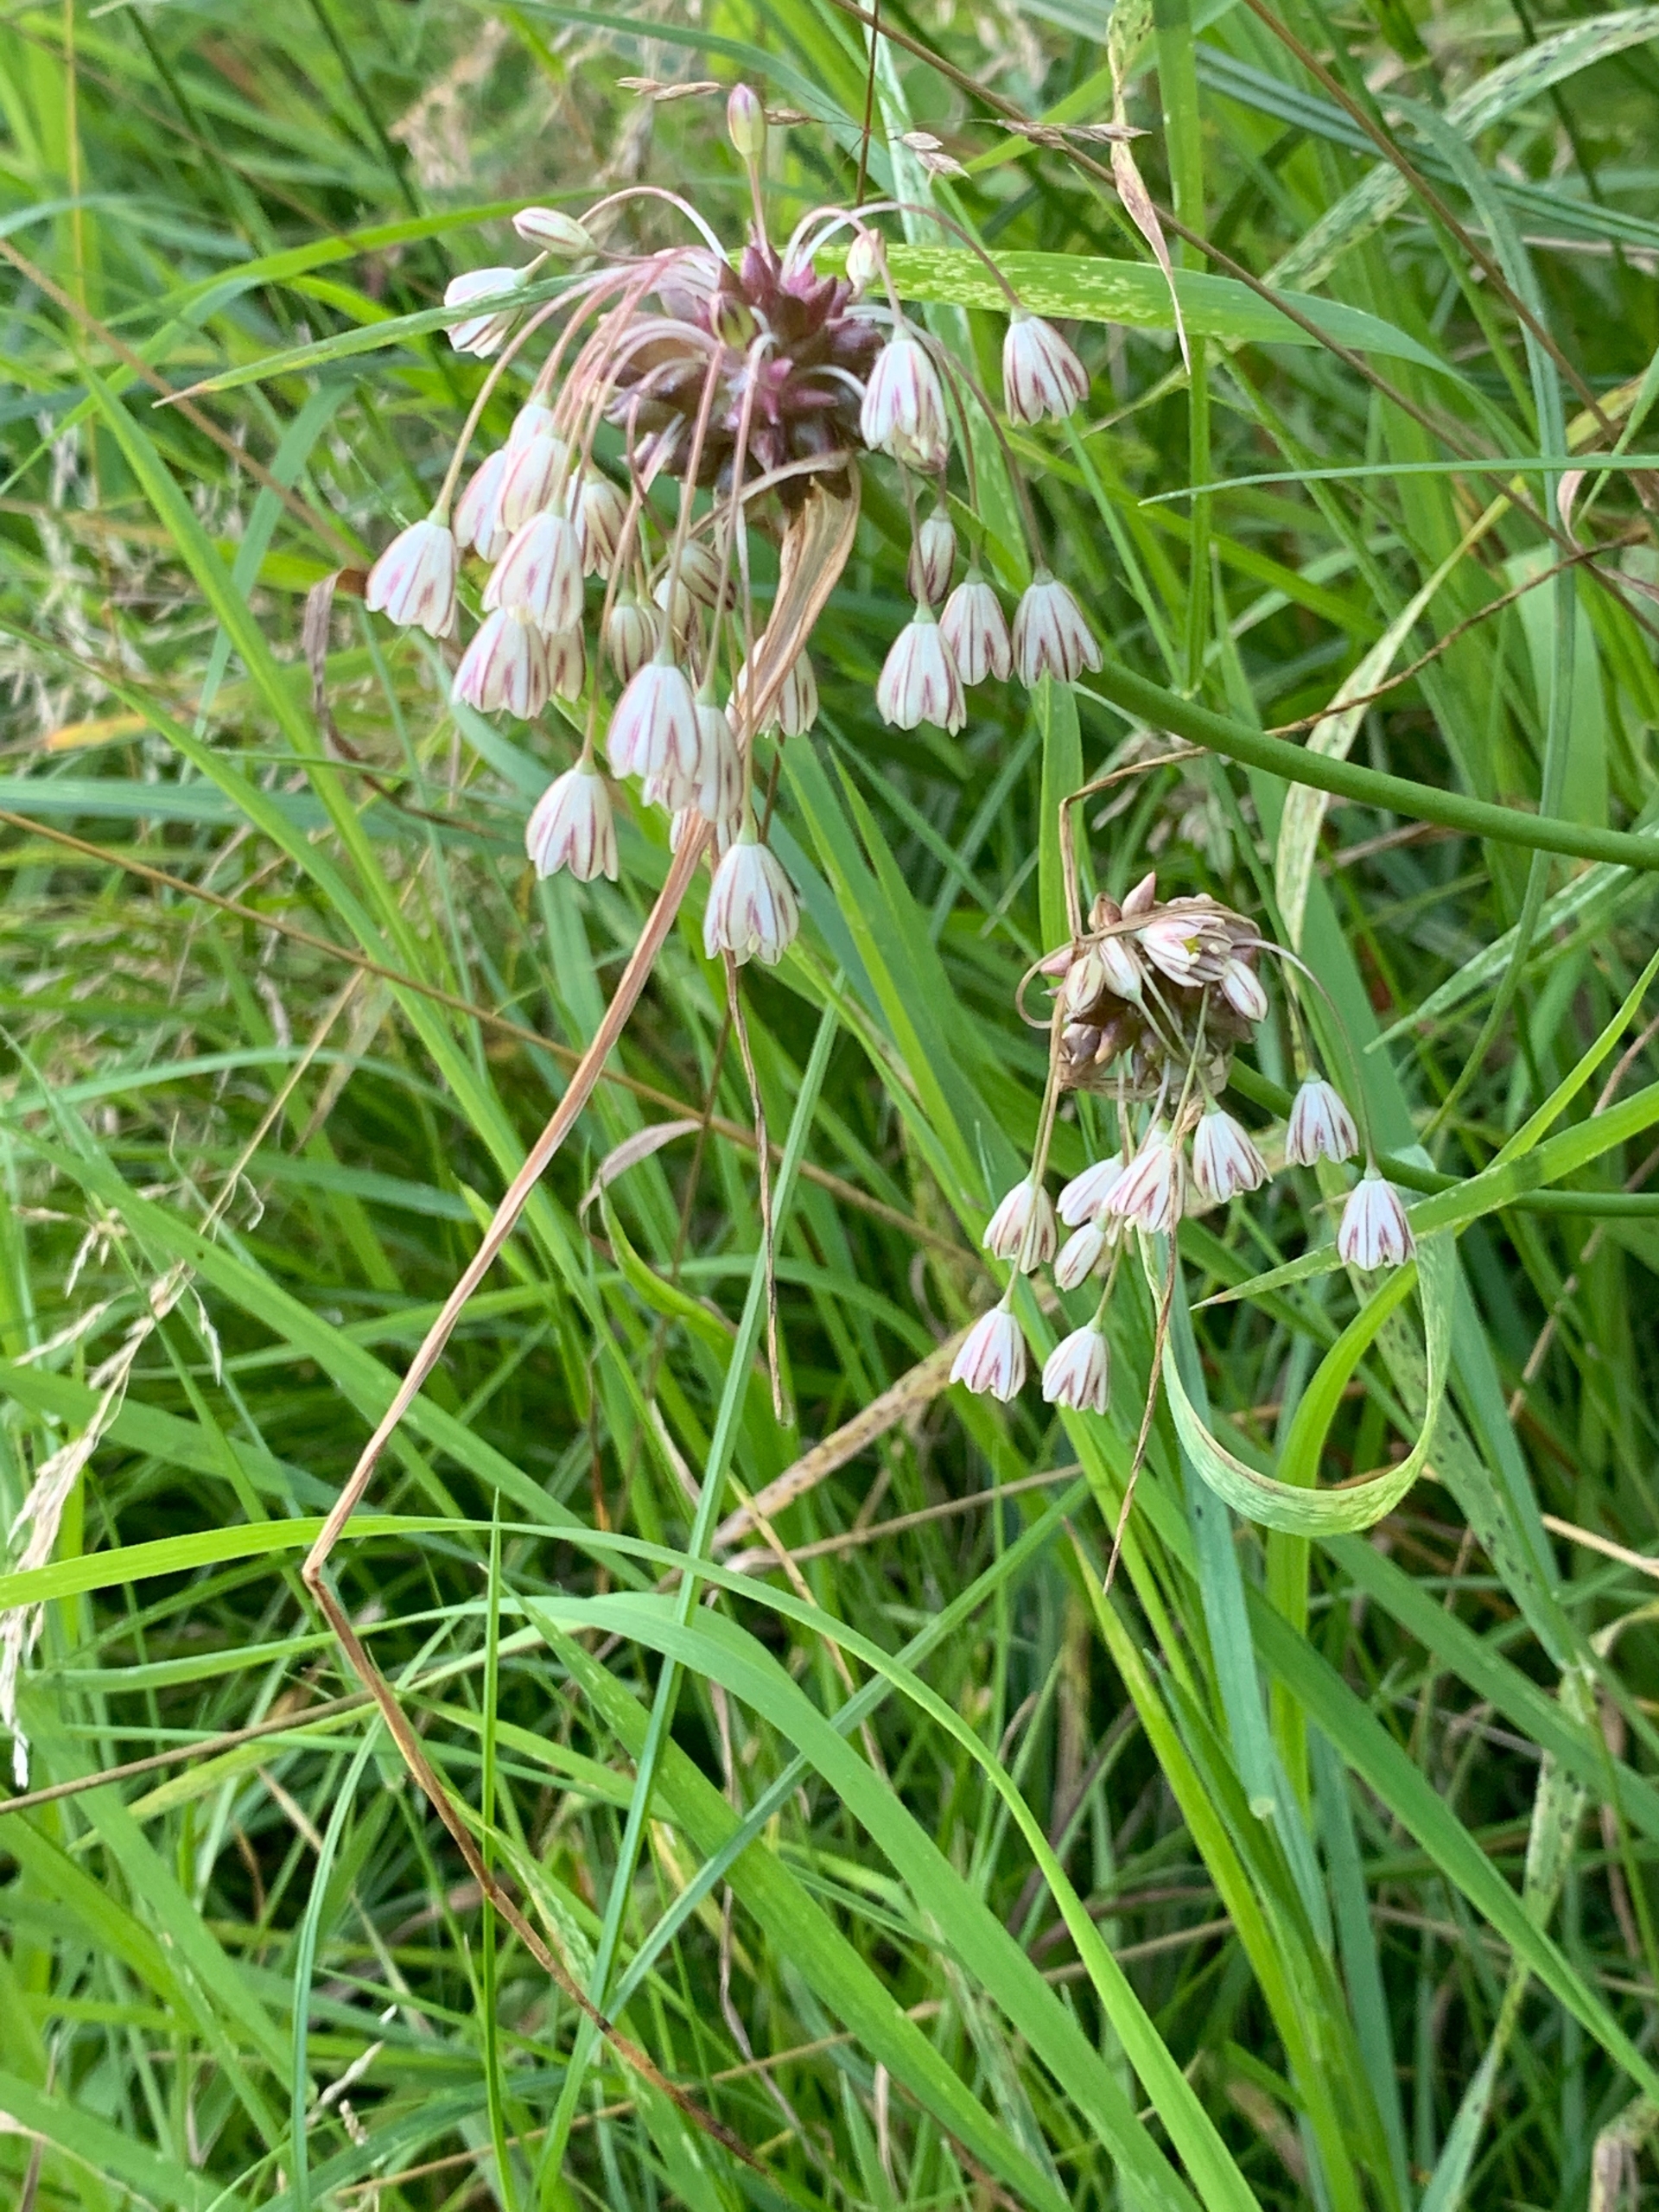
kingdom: Plantae
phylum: Tracheophyta
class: Liliopsida
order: Asparagales
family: Amaryllidaceae
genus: Allium
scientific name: Allium oleraceum
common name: Vild løg
